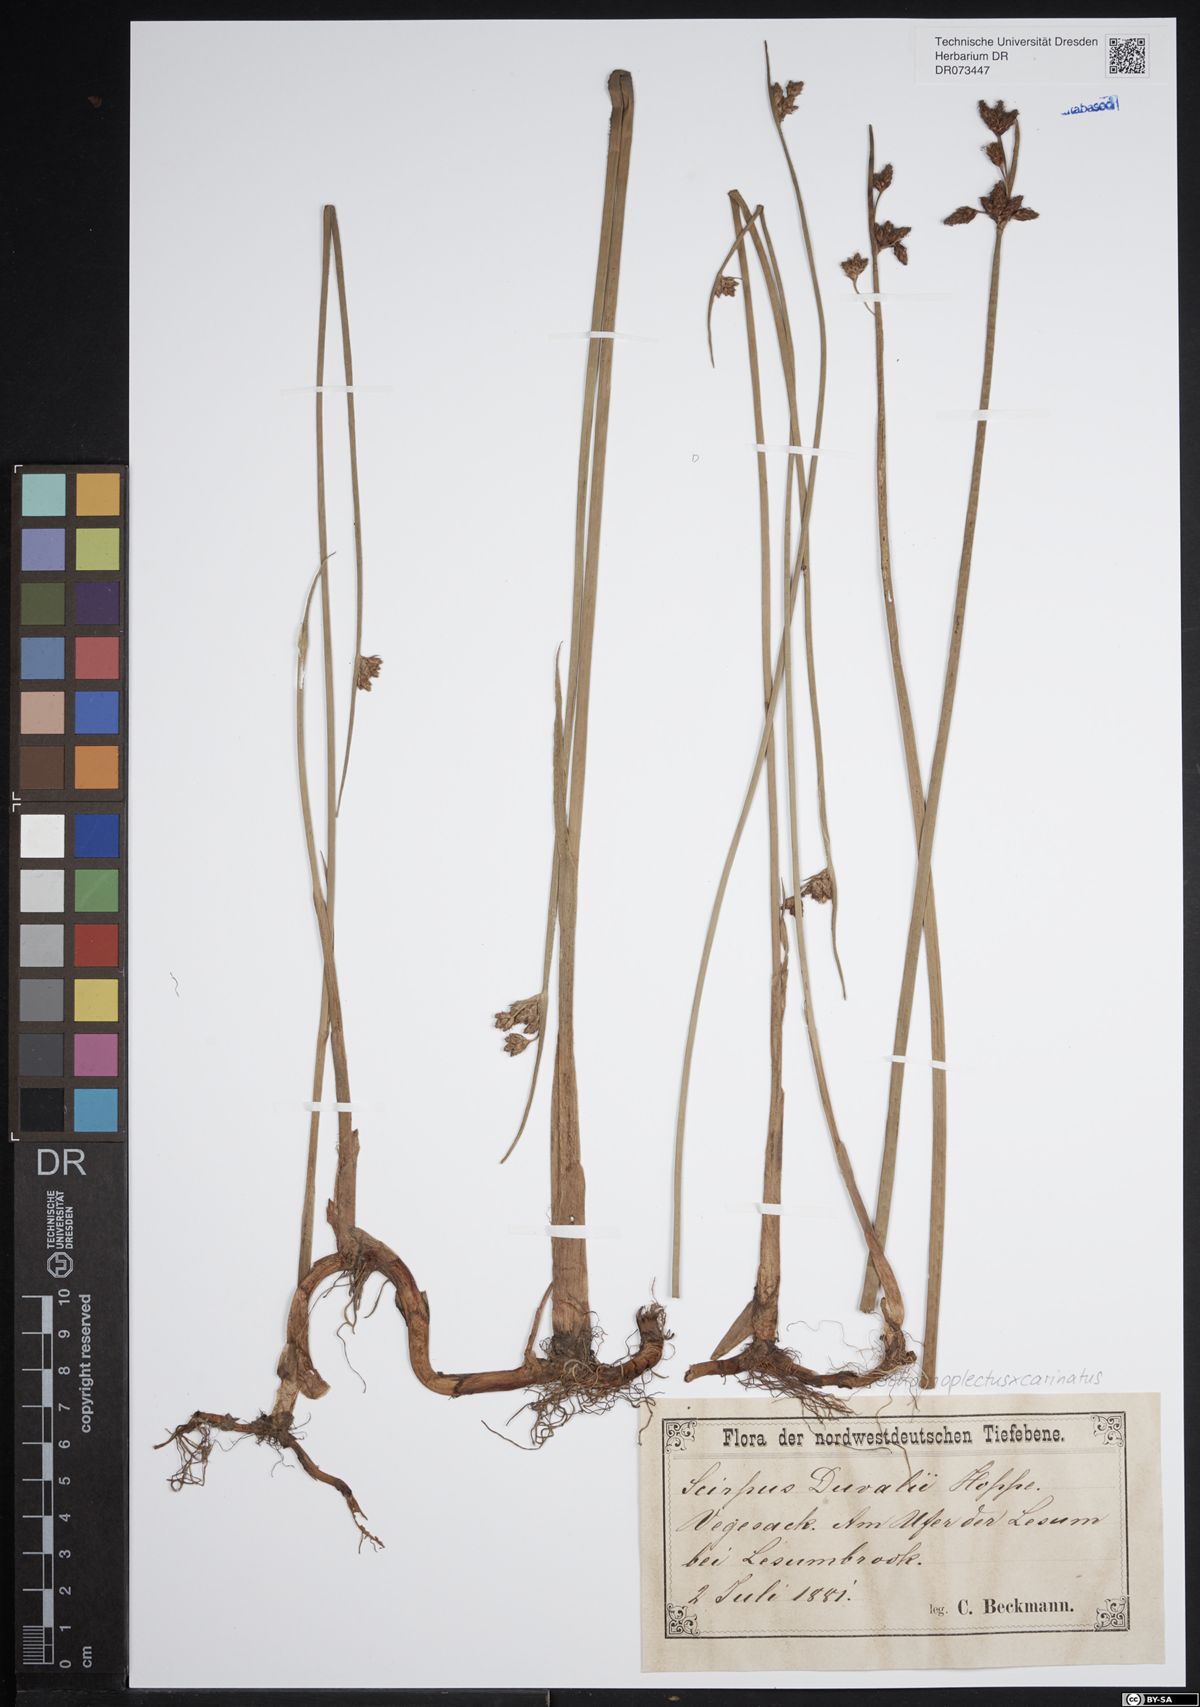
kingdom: Plantae
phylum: Tracheophyta
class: Liliopsida
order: Poales
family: Cyperaceae
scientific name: Cyperaceae
